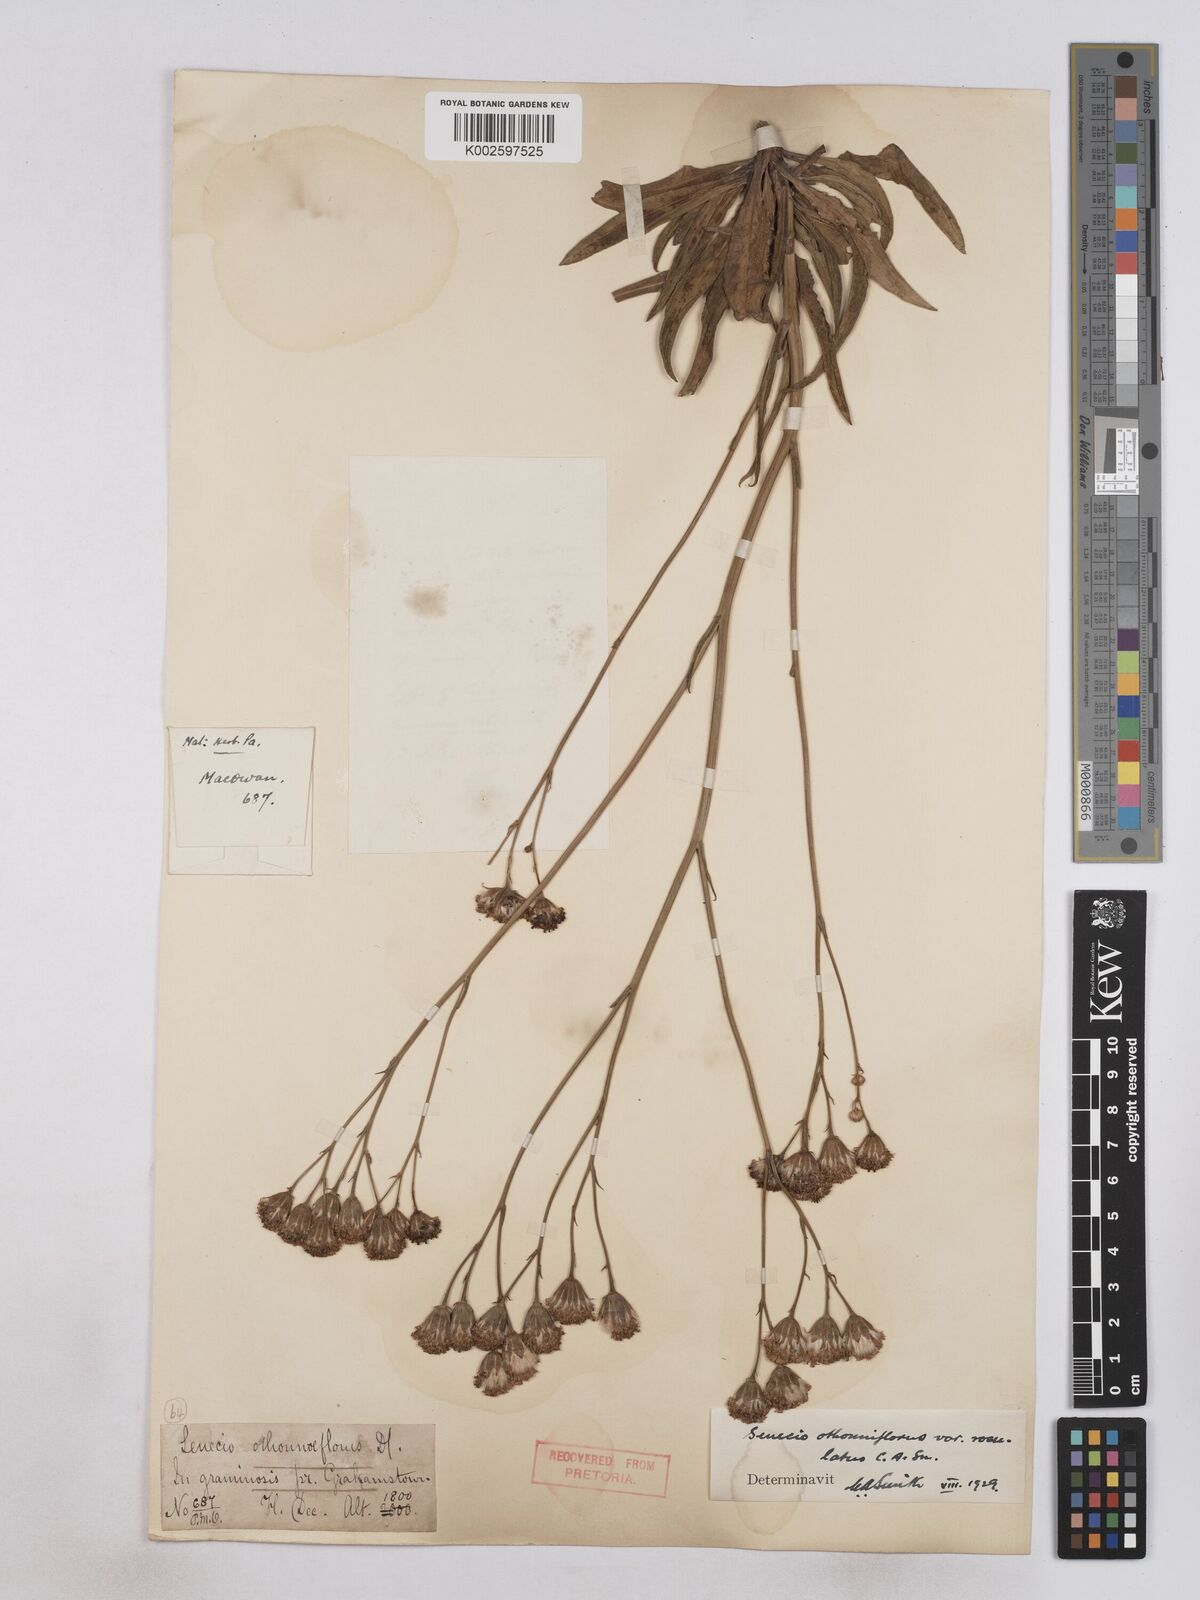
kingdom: Plantae
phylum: Tracheophyta
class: Magnoliopsida
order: Asterales
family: Asteraceae
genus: Senecio
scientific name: Senecio othonniflorus
